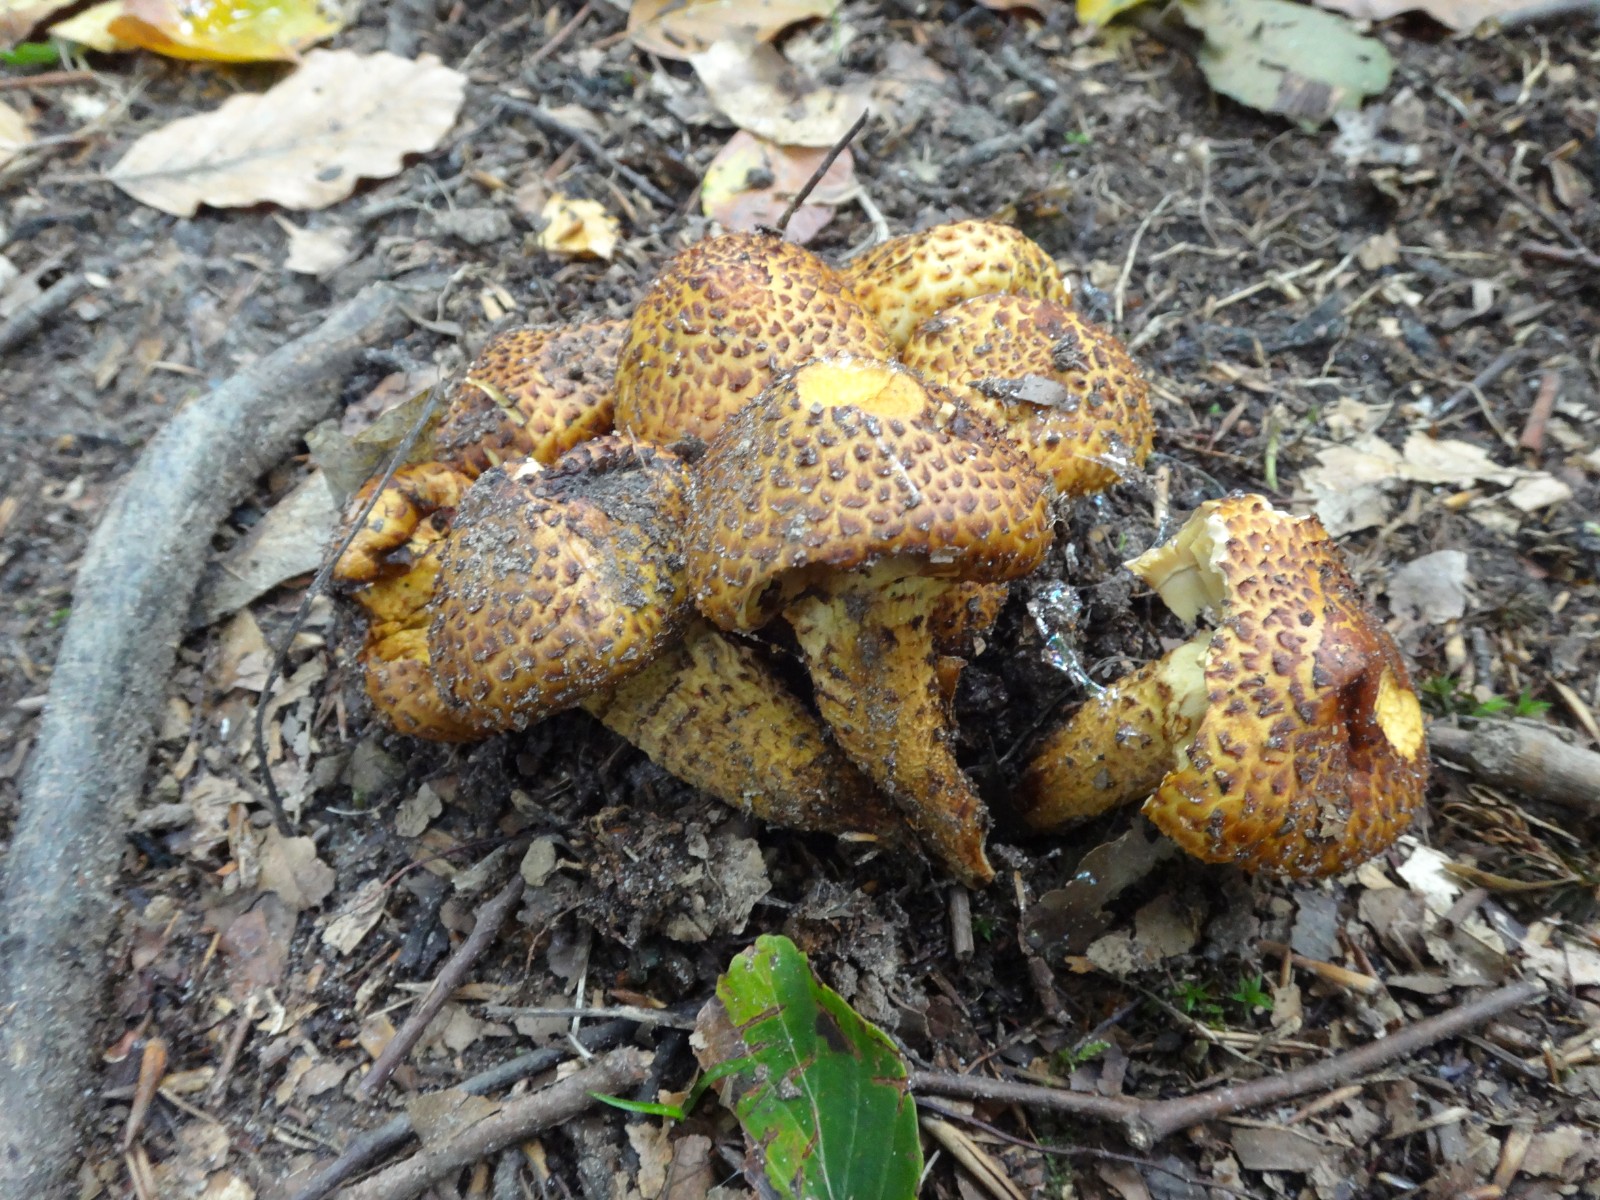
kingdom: Fungi
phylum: Basidiomycota
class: Agaricomycetes
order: Agaricales
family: Strophariaceae
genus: Pholiota
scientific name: Pholiota jahnii
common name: slimet skælhat
